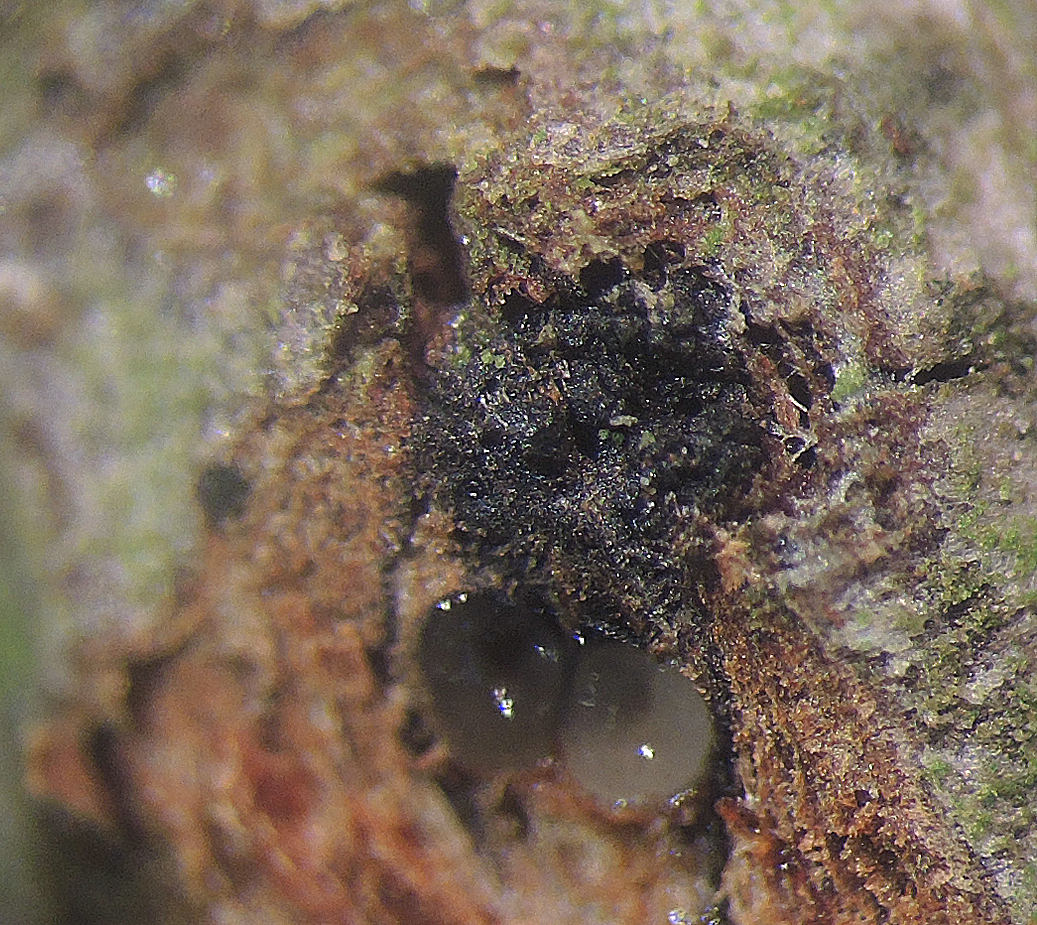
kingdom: Fungi
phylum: Ascomycota
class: Sordariomycetes
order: Xylariales
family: Diatrypaceae
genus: Eutypella
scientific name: Eutypella stellulata
